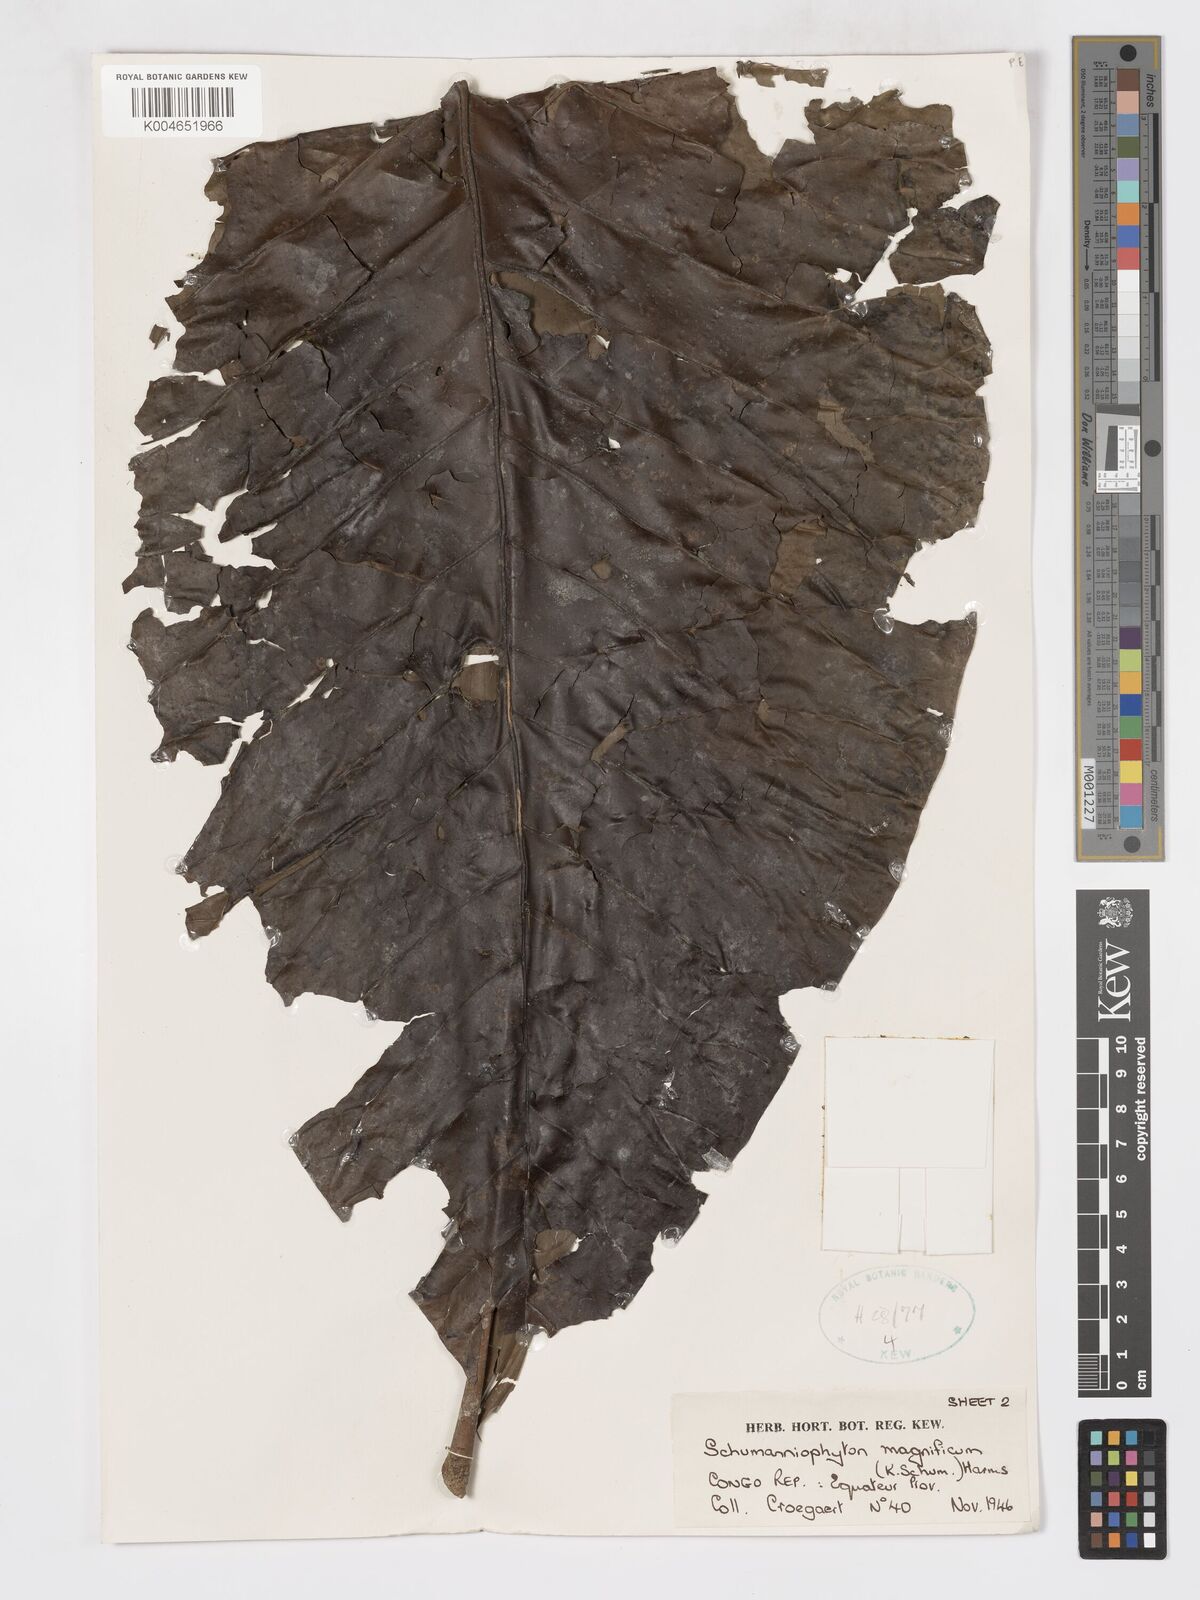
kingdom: Plantae
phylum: Tracheophyta
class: Magnoliopsida
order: Gentianales
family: Rubiaceae
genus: Schumanniophyton
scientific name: Schumanniophyton magnificum
